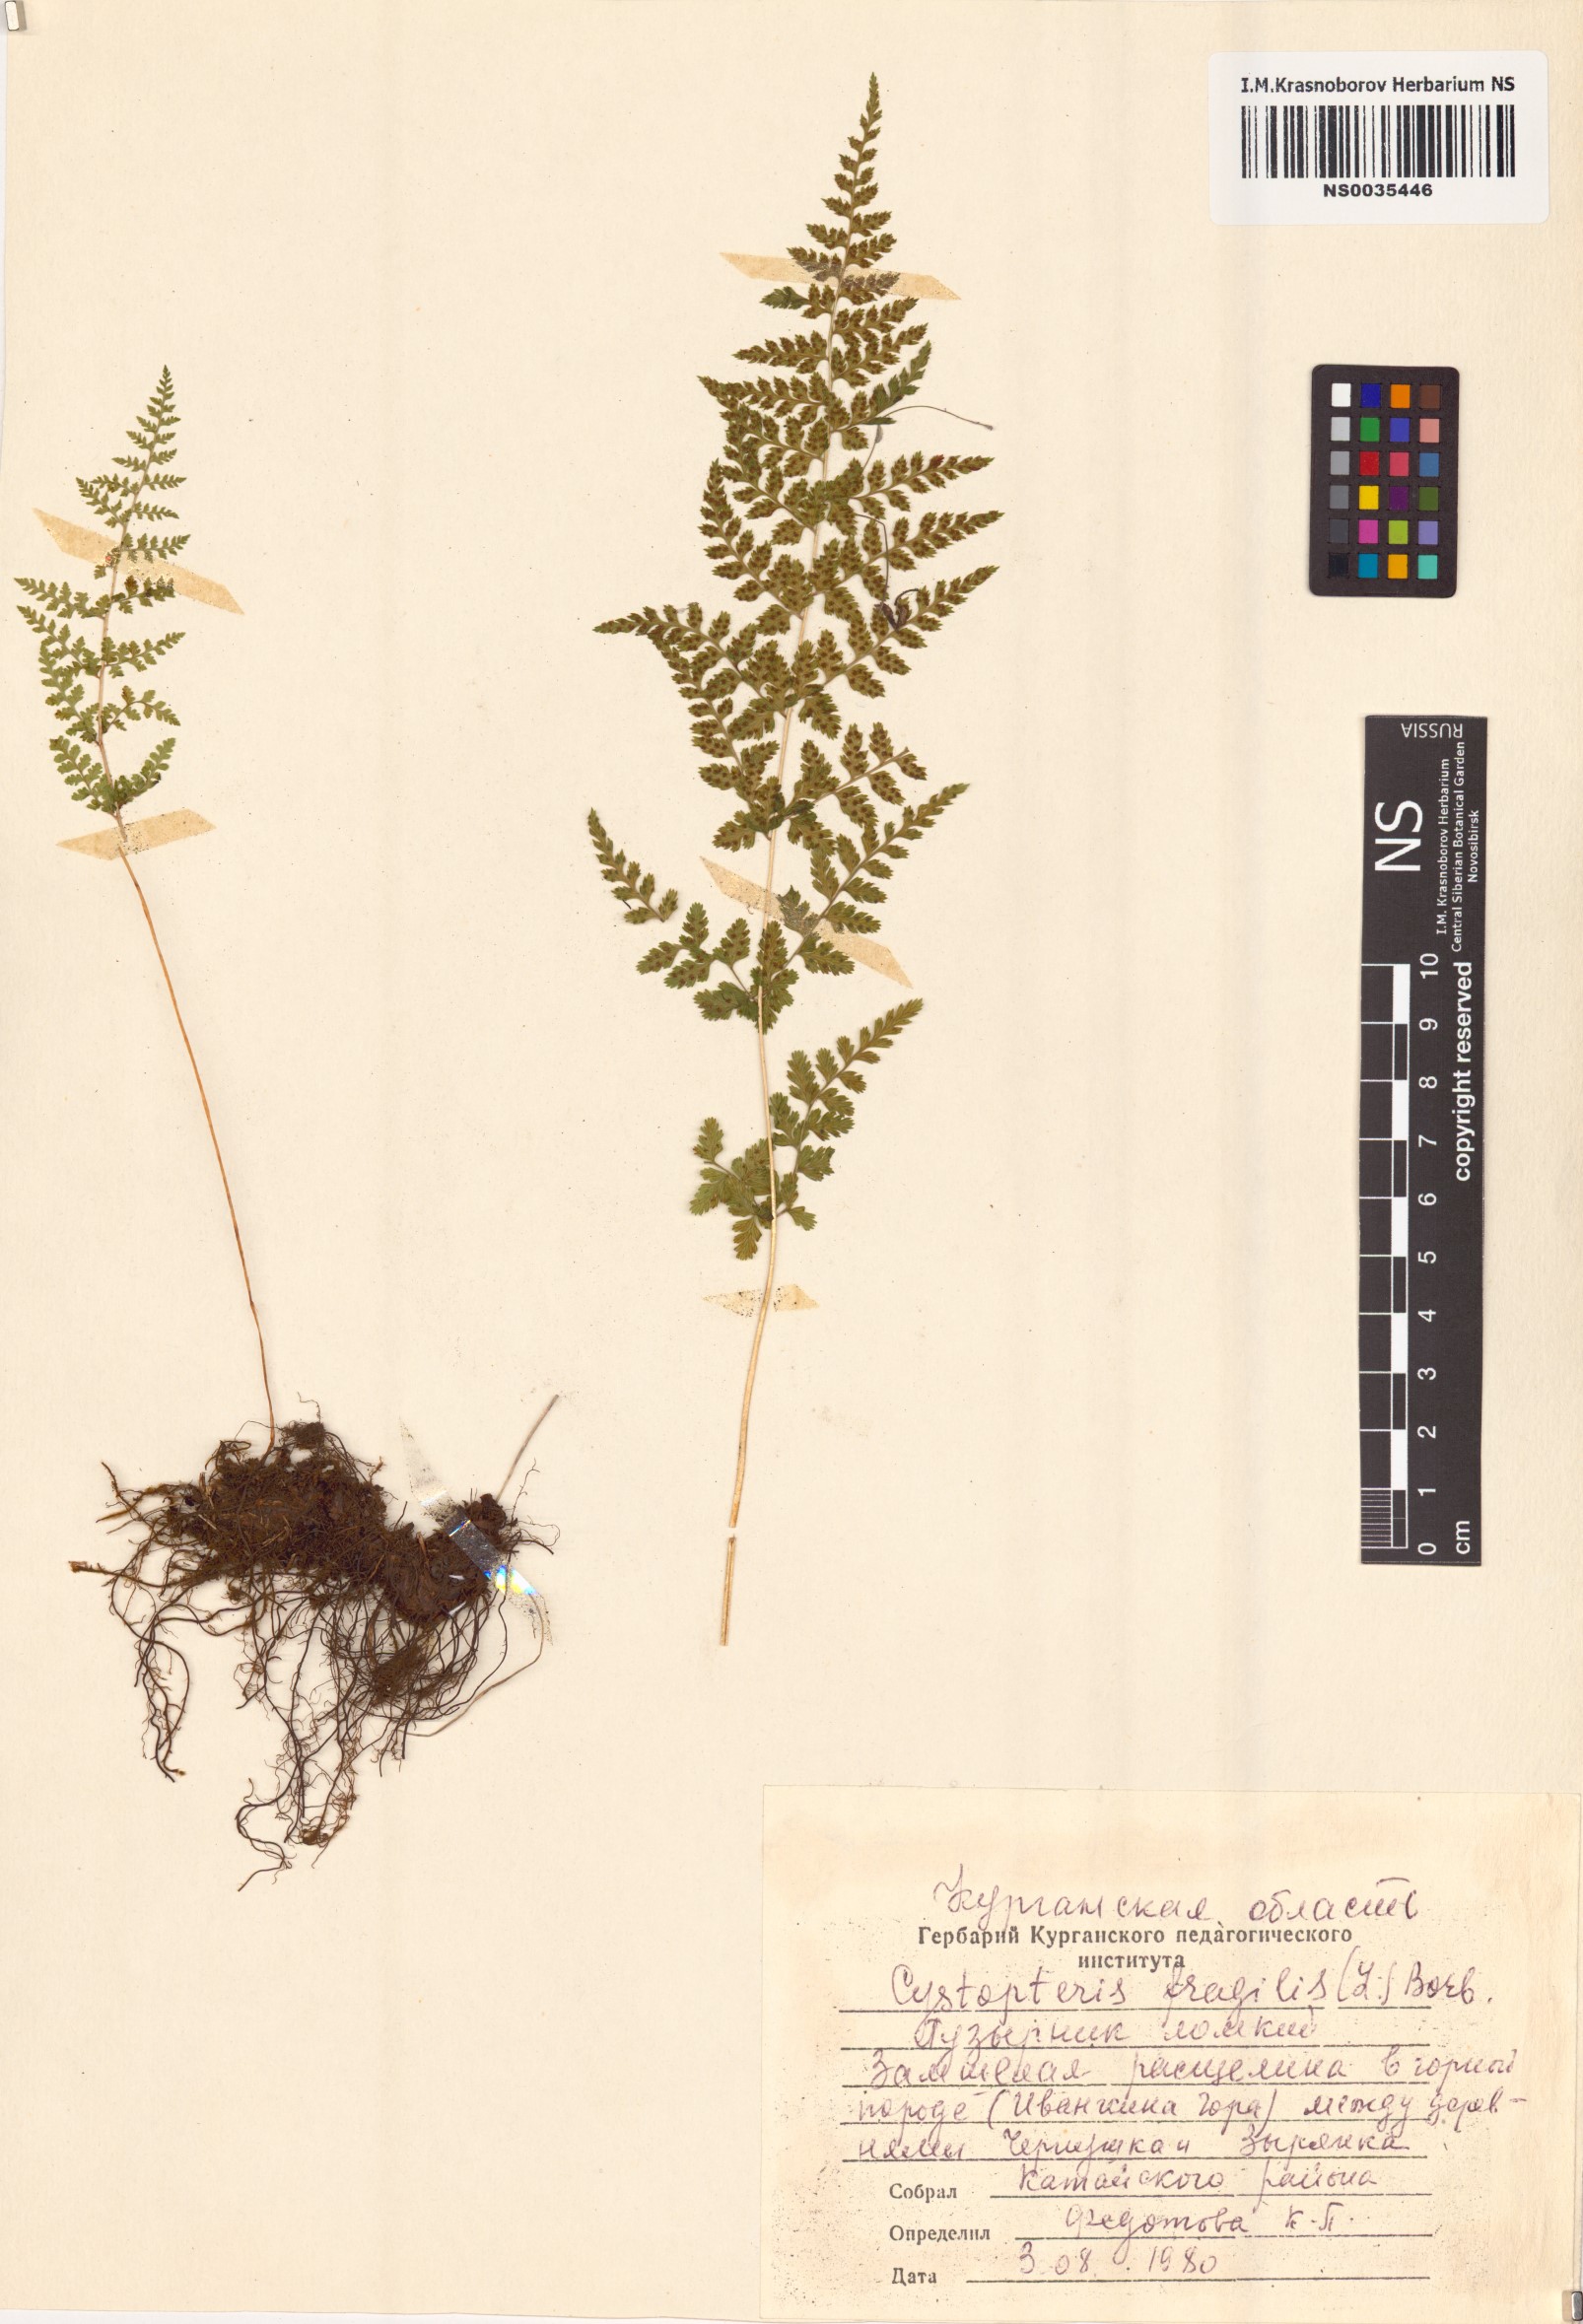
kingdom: Plantae
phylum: Tracheophyta
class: Polypodiopsida
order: Polypodiales
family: Cystopteridaceae
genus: Cystopteris
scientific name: Cystopteris fragilis
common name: Brittle bladder fern
